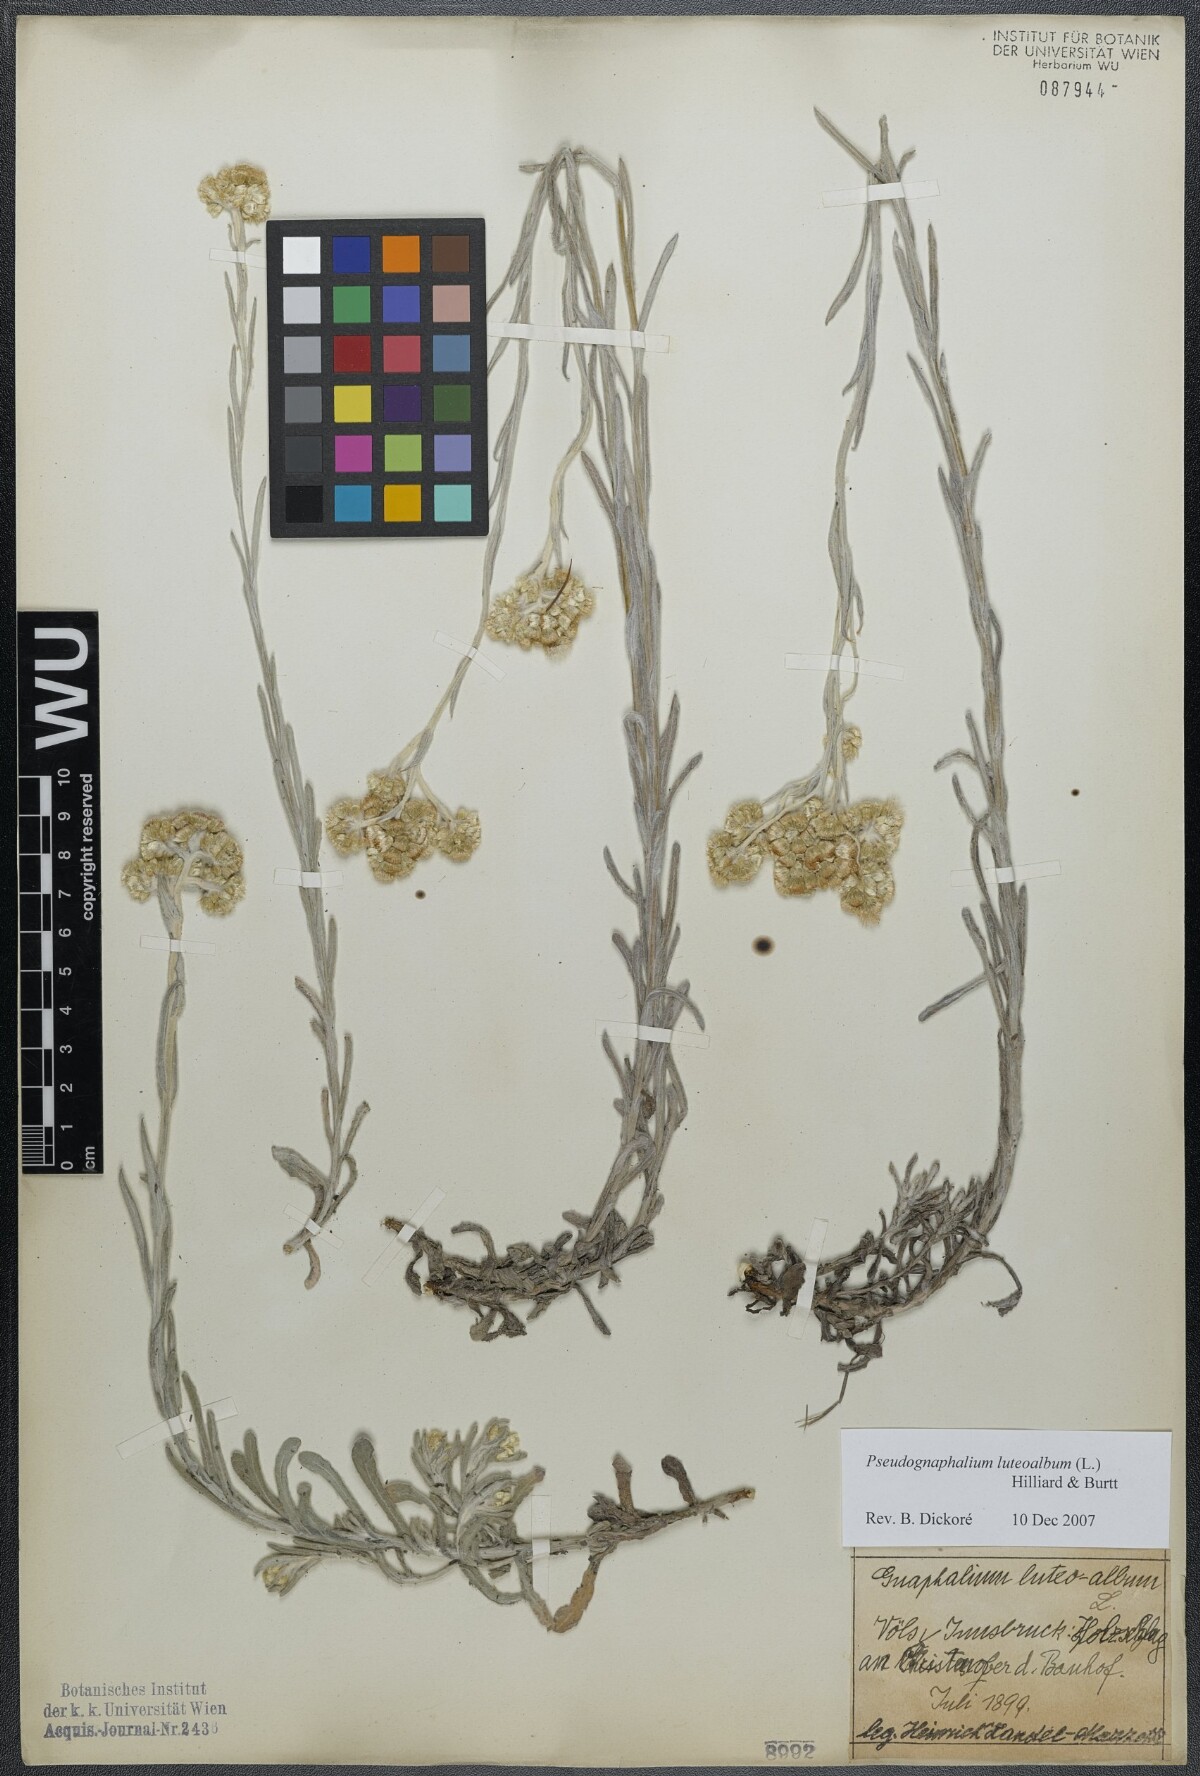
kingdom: Plantae
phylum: Tracheophyta
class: Magnoliopsida
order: Asterales
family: Asteraceae
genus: Helichrysum
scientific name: Helichrysum luteoalbum
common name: Daisy
